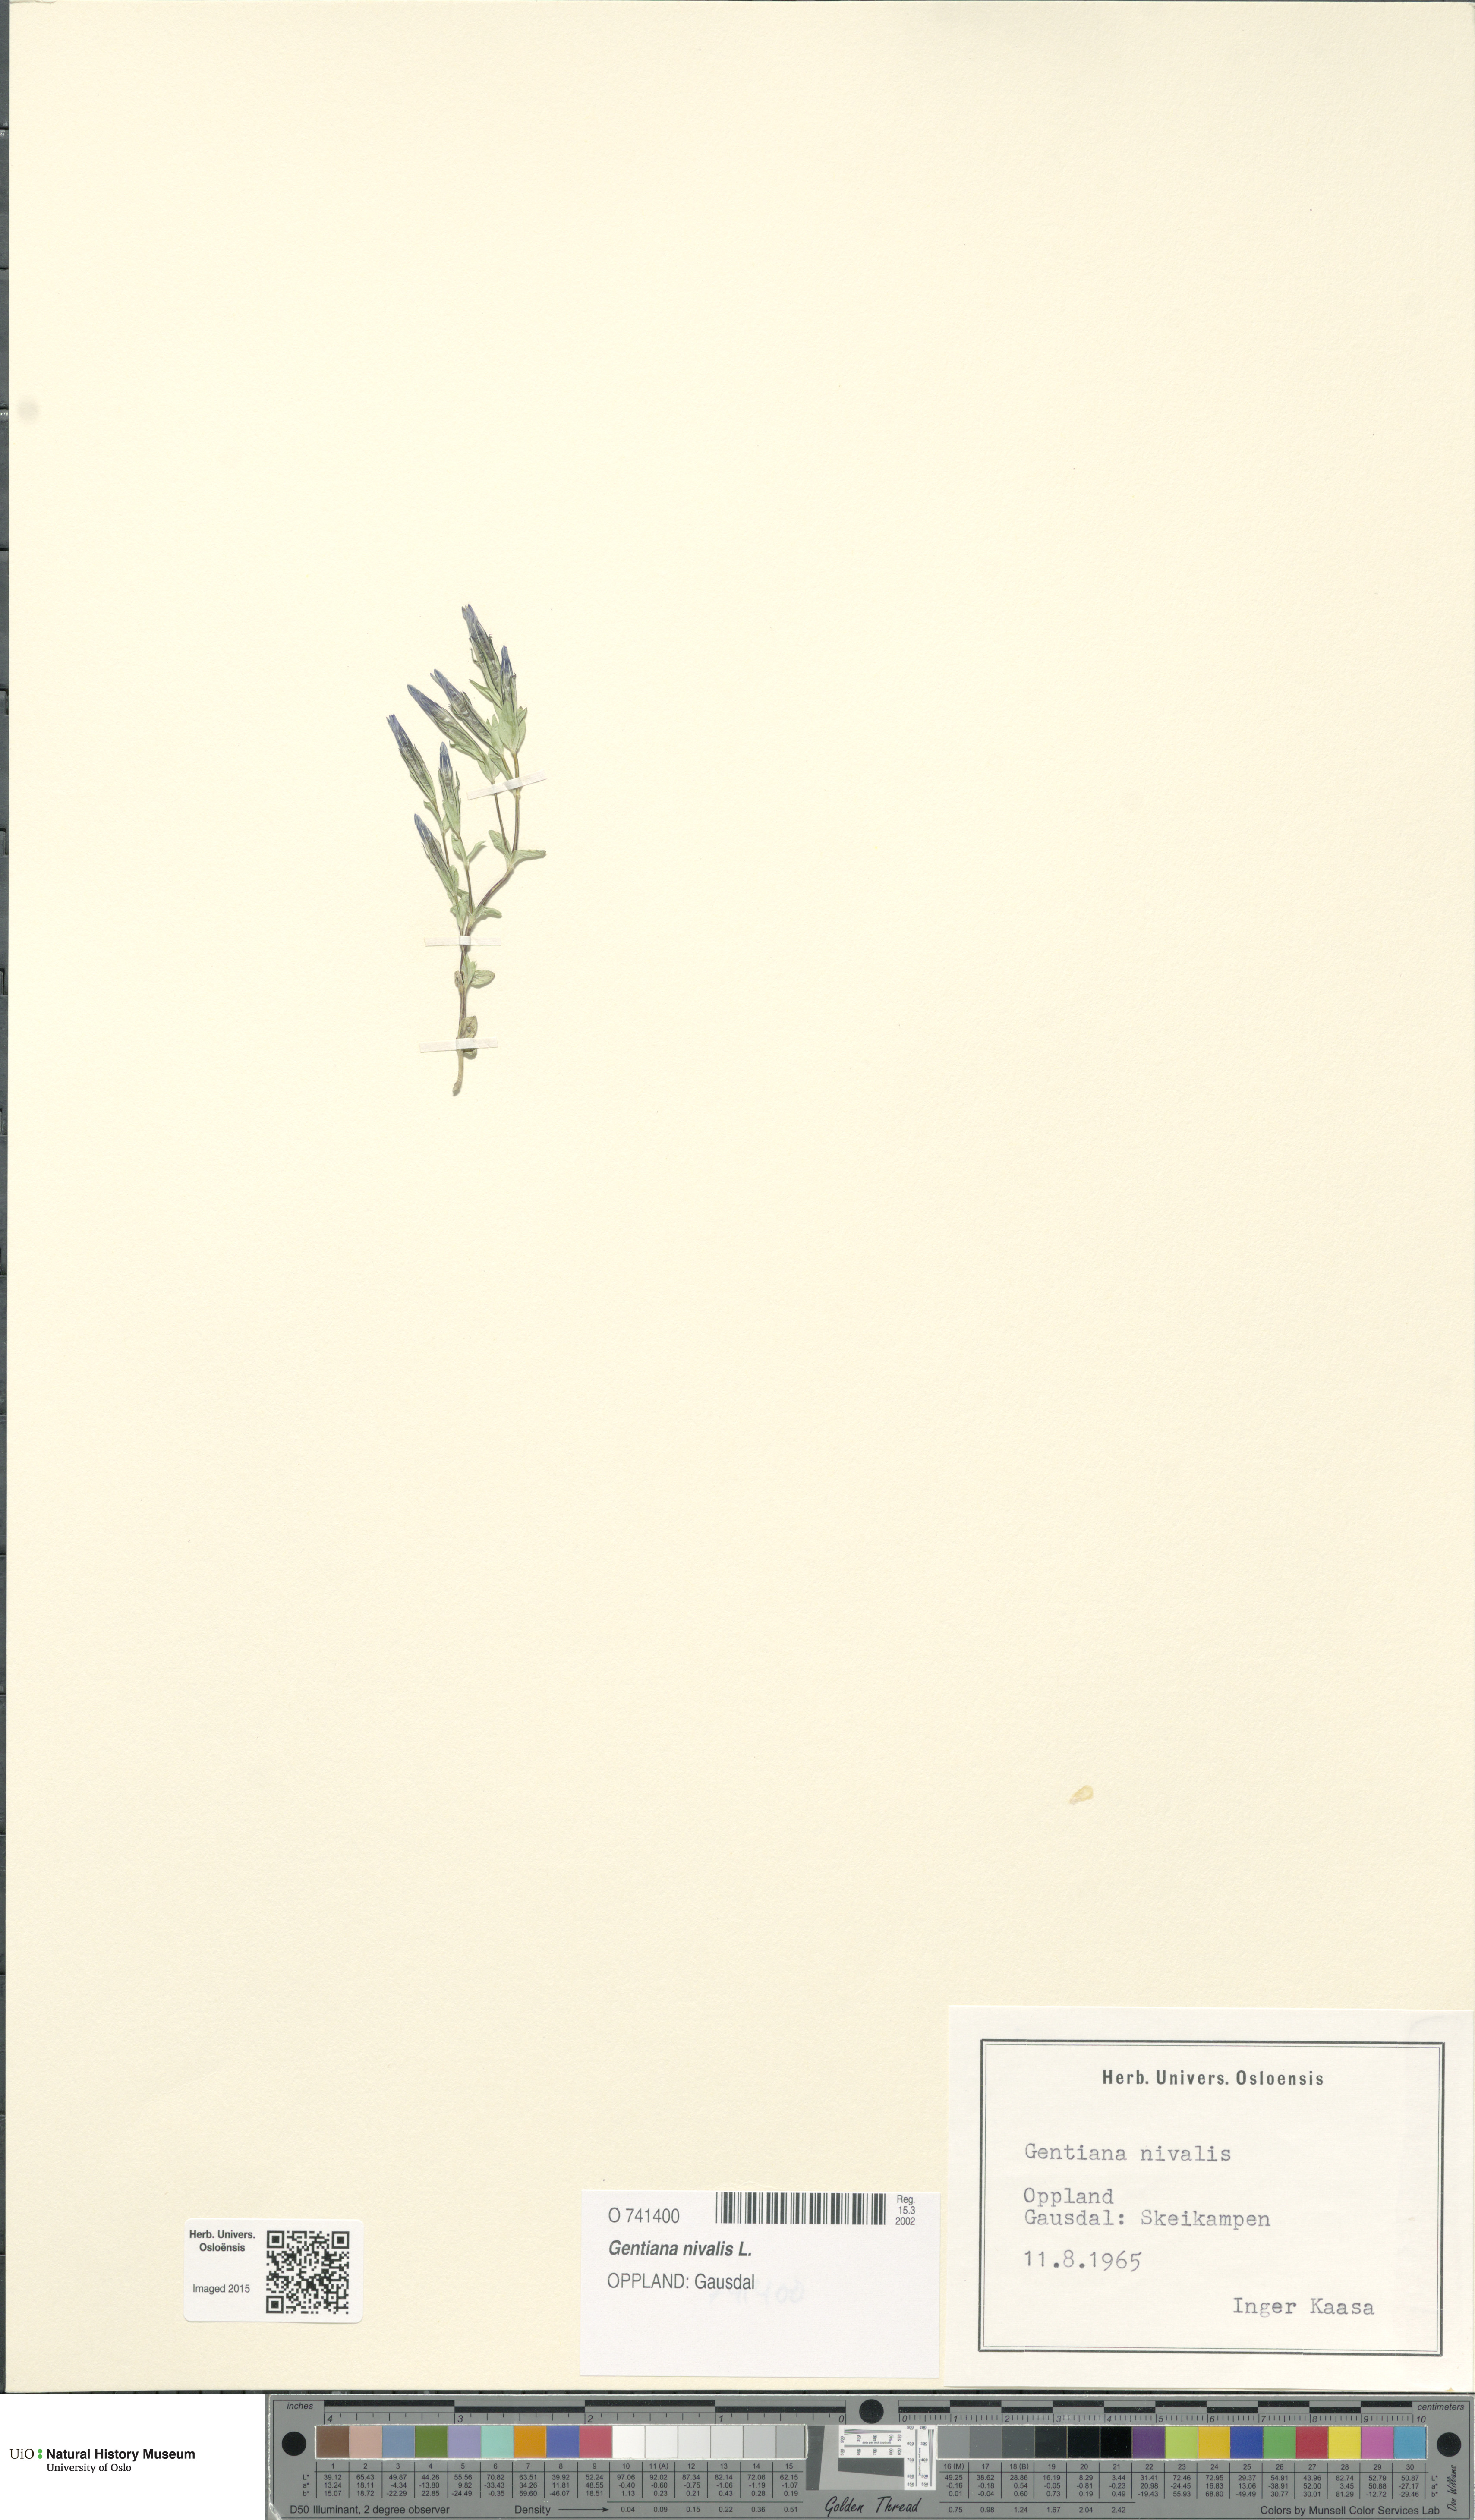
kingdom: Plantae
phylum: Tracheophyta
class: Magnoliopsida
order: Gentianales
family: Gentianaceae
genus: Gentiana
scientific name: Gentiana nivalis
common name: Alpine gentian
